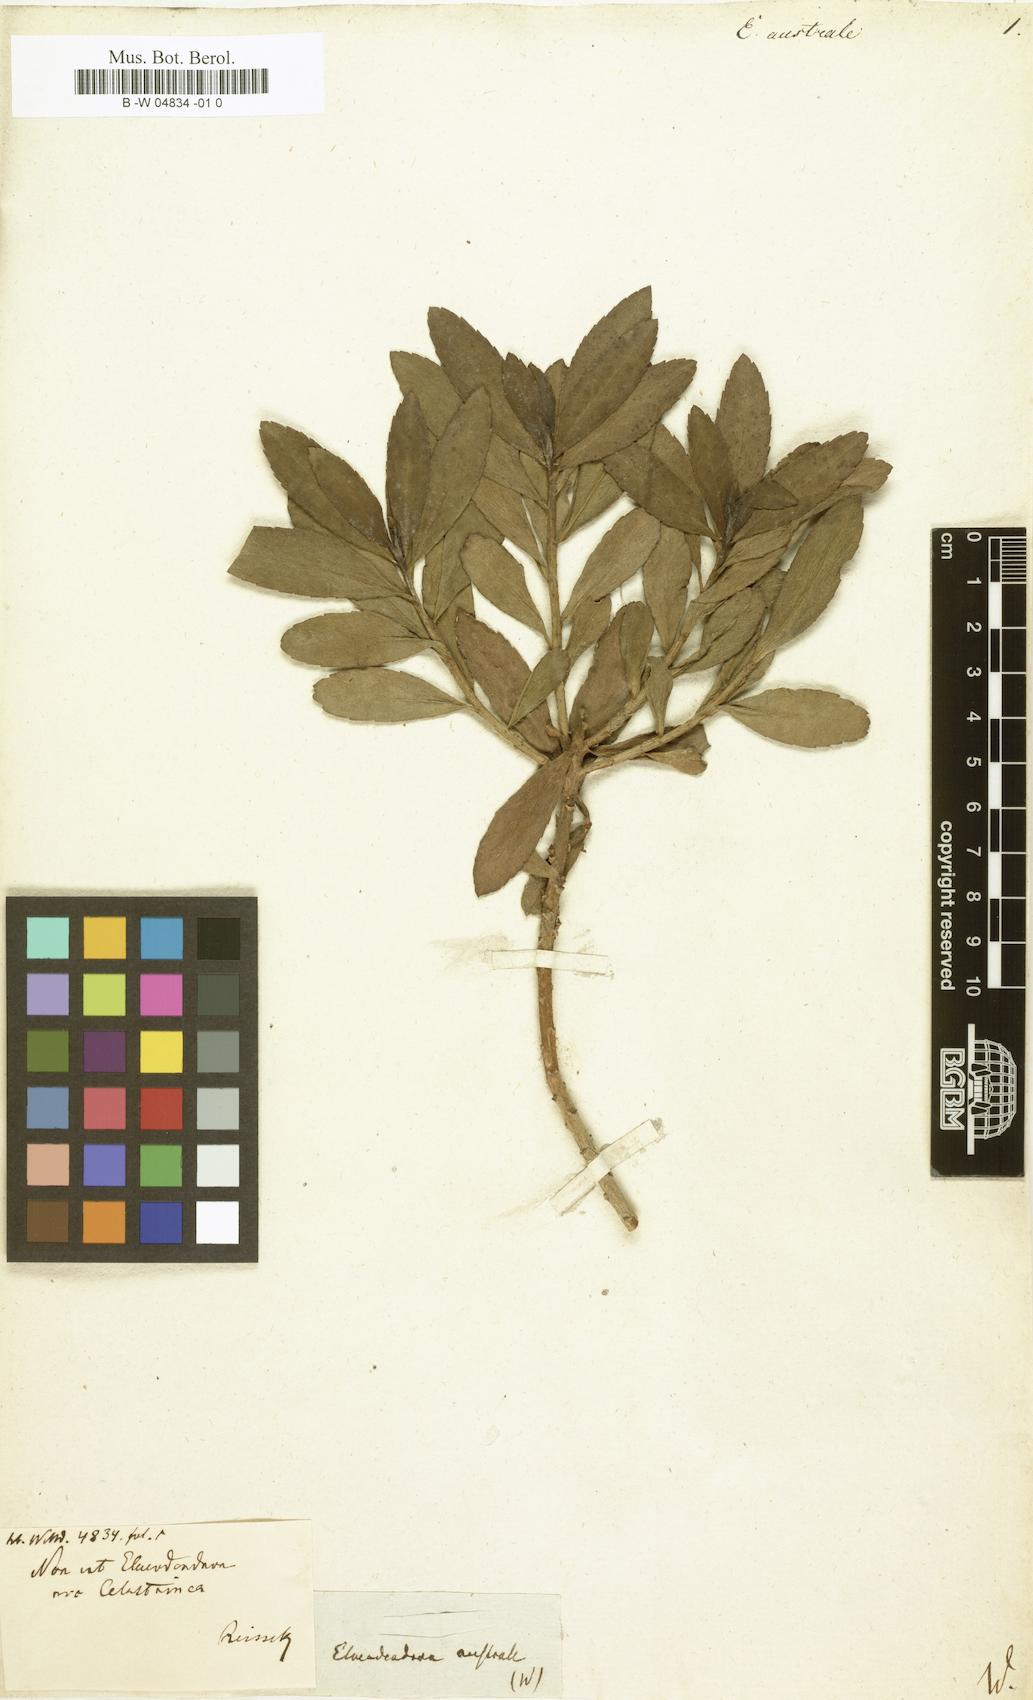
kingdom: Plantae
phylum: Tracheophyta
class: Magnoliopsida
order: Celastrales
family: Celastraceae
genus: Elaeodendron
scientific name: Elaeodendron australe
